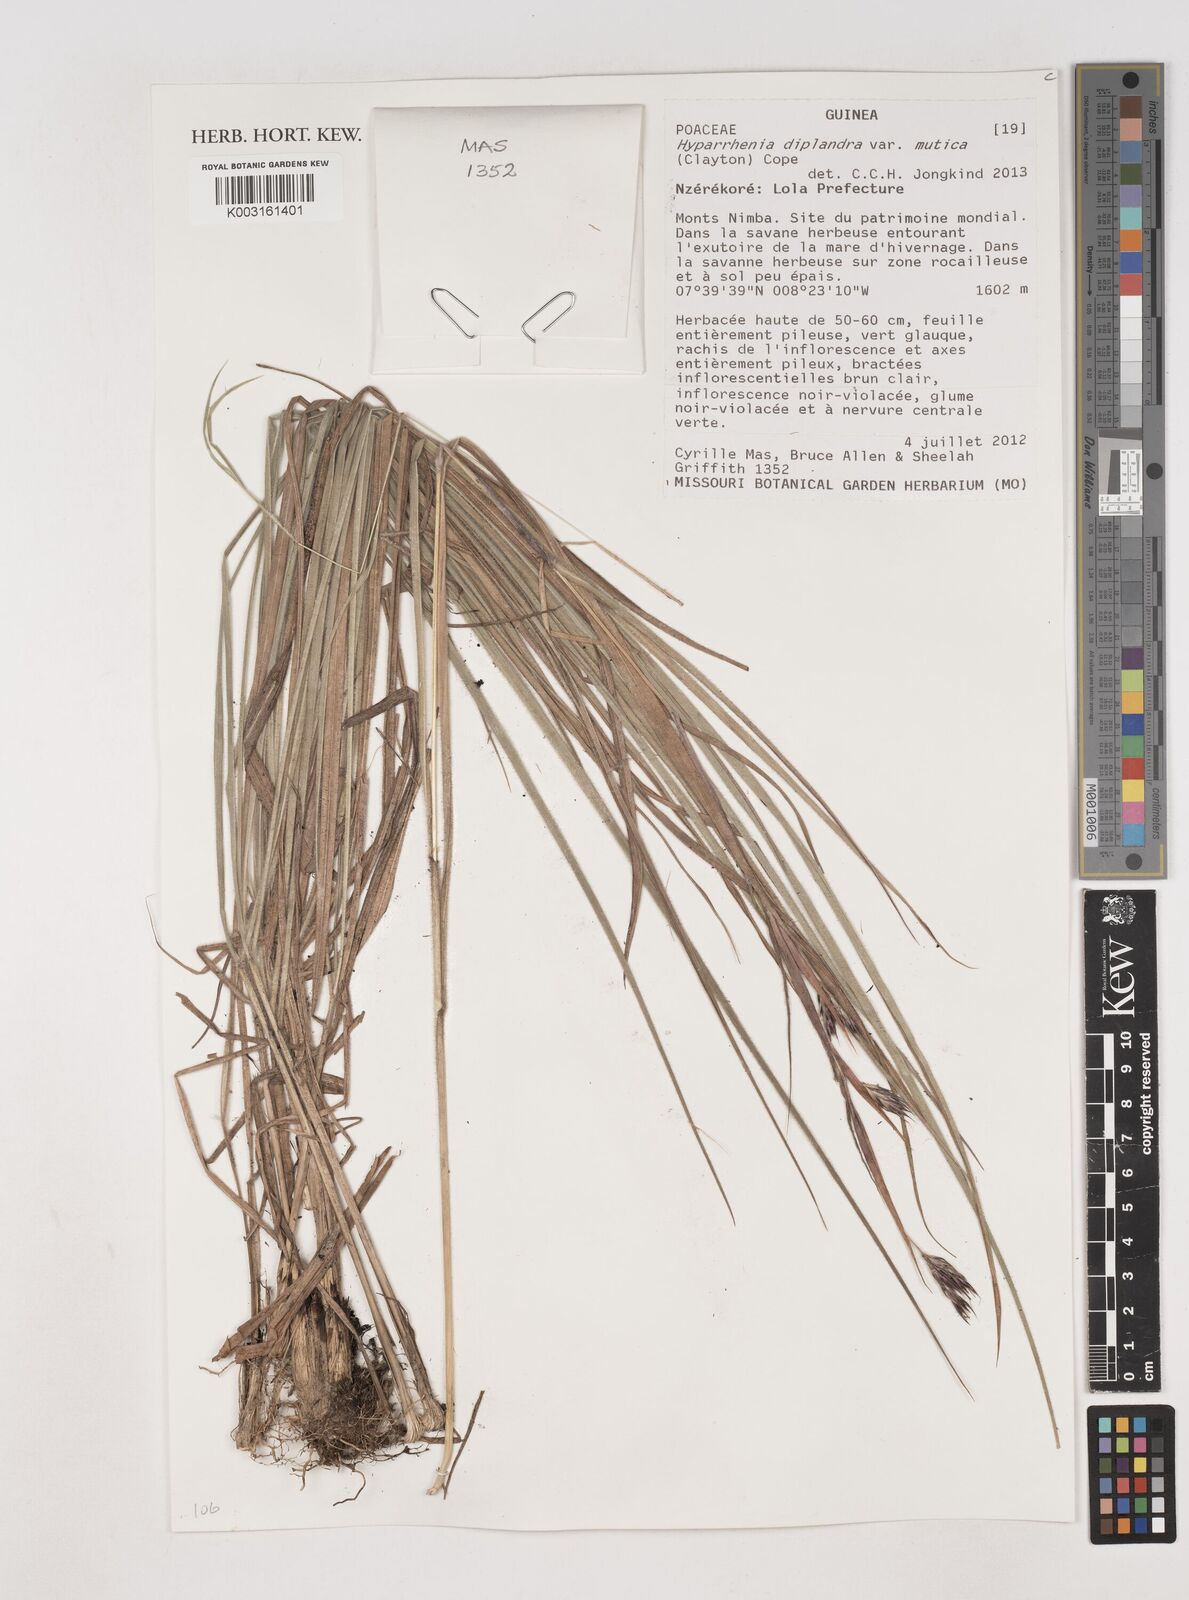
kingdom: Plantae
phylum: Tracheophyta
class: Liliopsida
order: Poales
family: Poaceae
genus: Hyparrhenia
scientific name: Hyparrhenia diplandra
